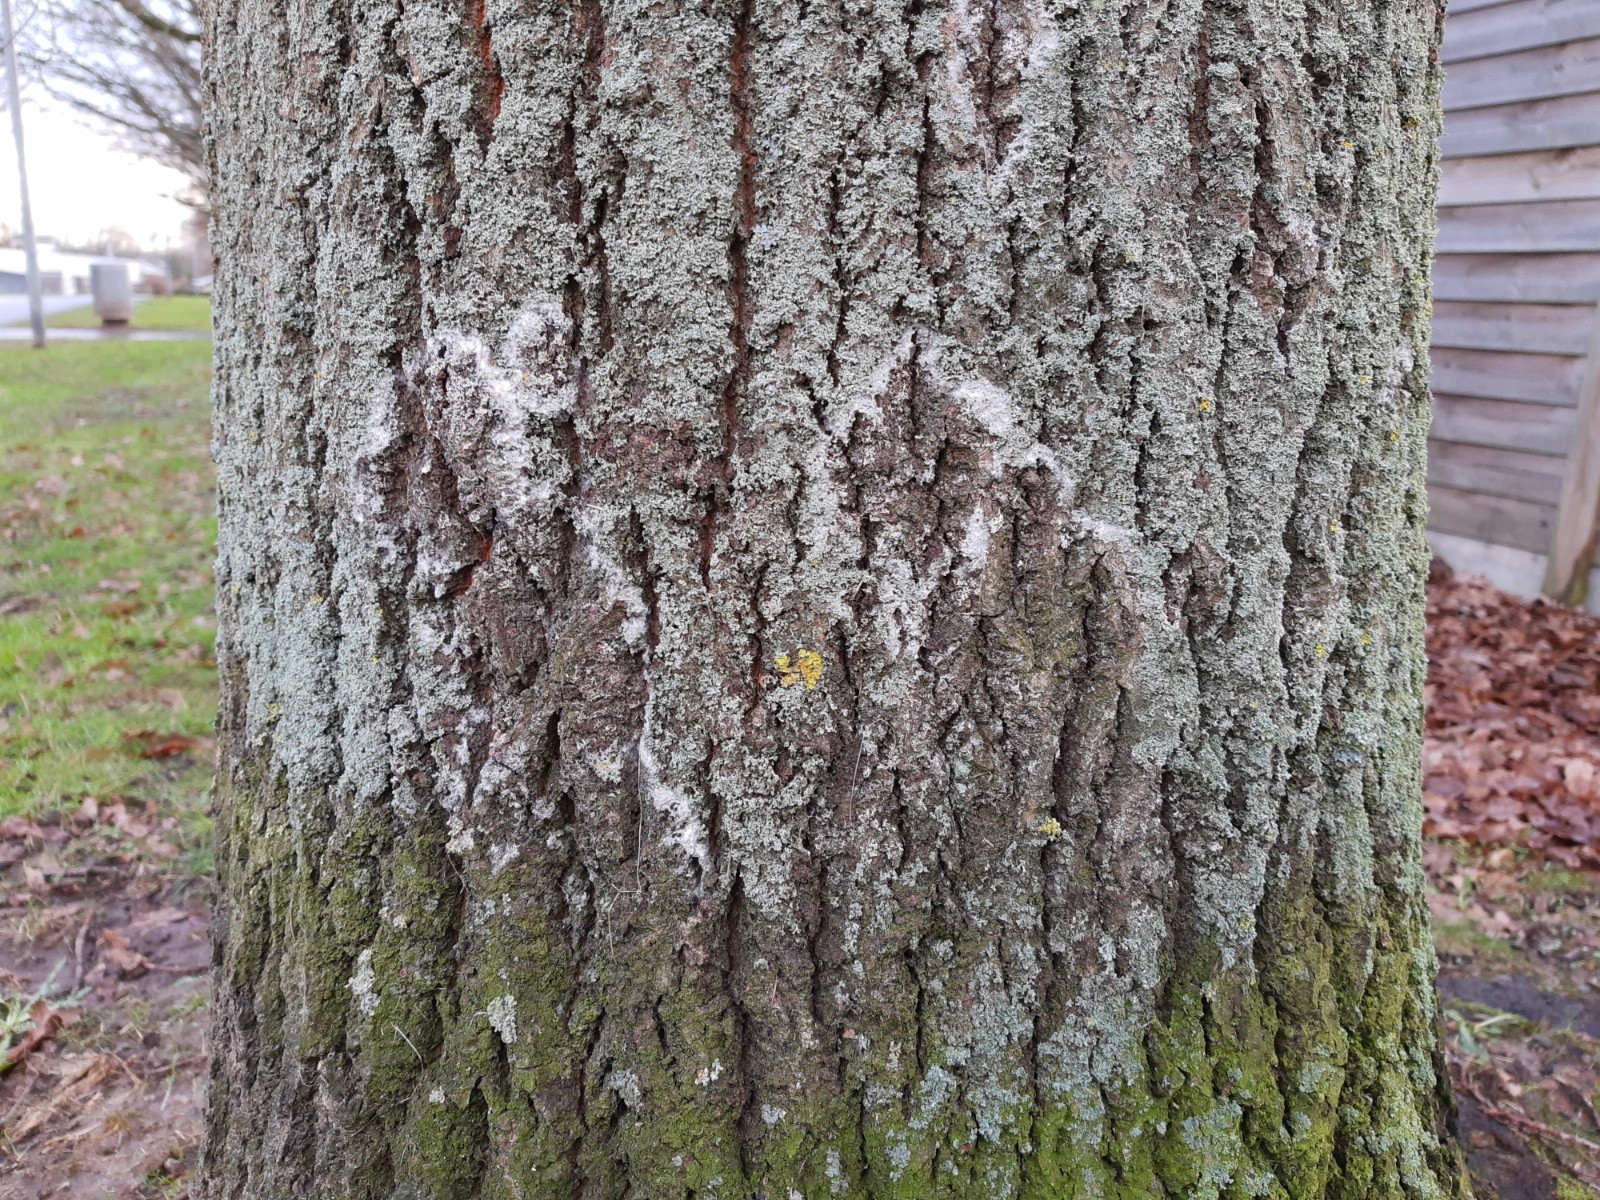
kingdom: Fungi
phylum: Basidiomycota
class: Agaricomycetes
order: Atheliales
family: Atheliaceae
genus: Athelia
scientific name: Athelia arachnoidea
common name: randet barkhinde
